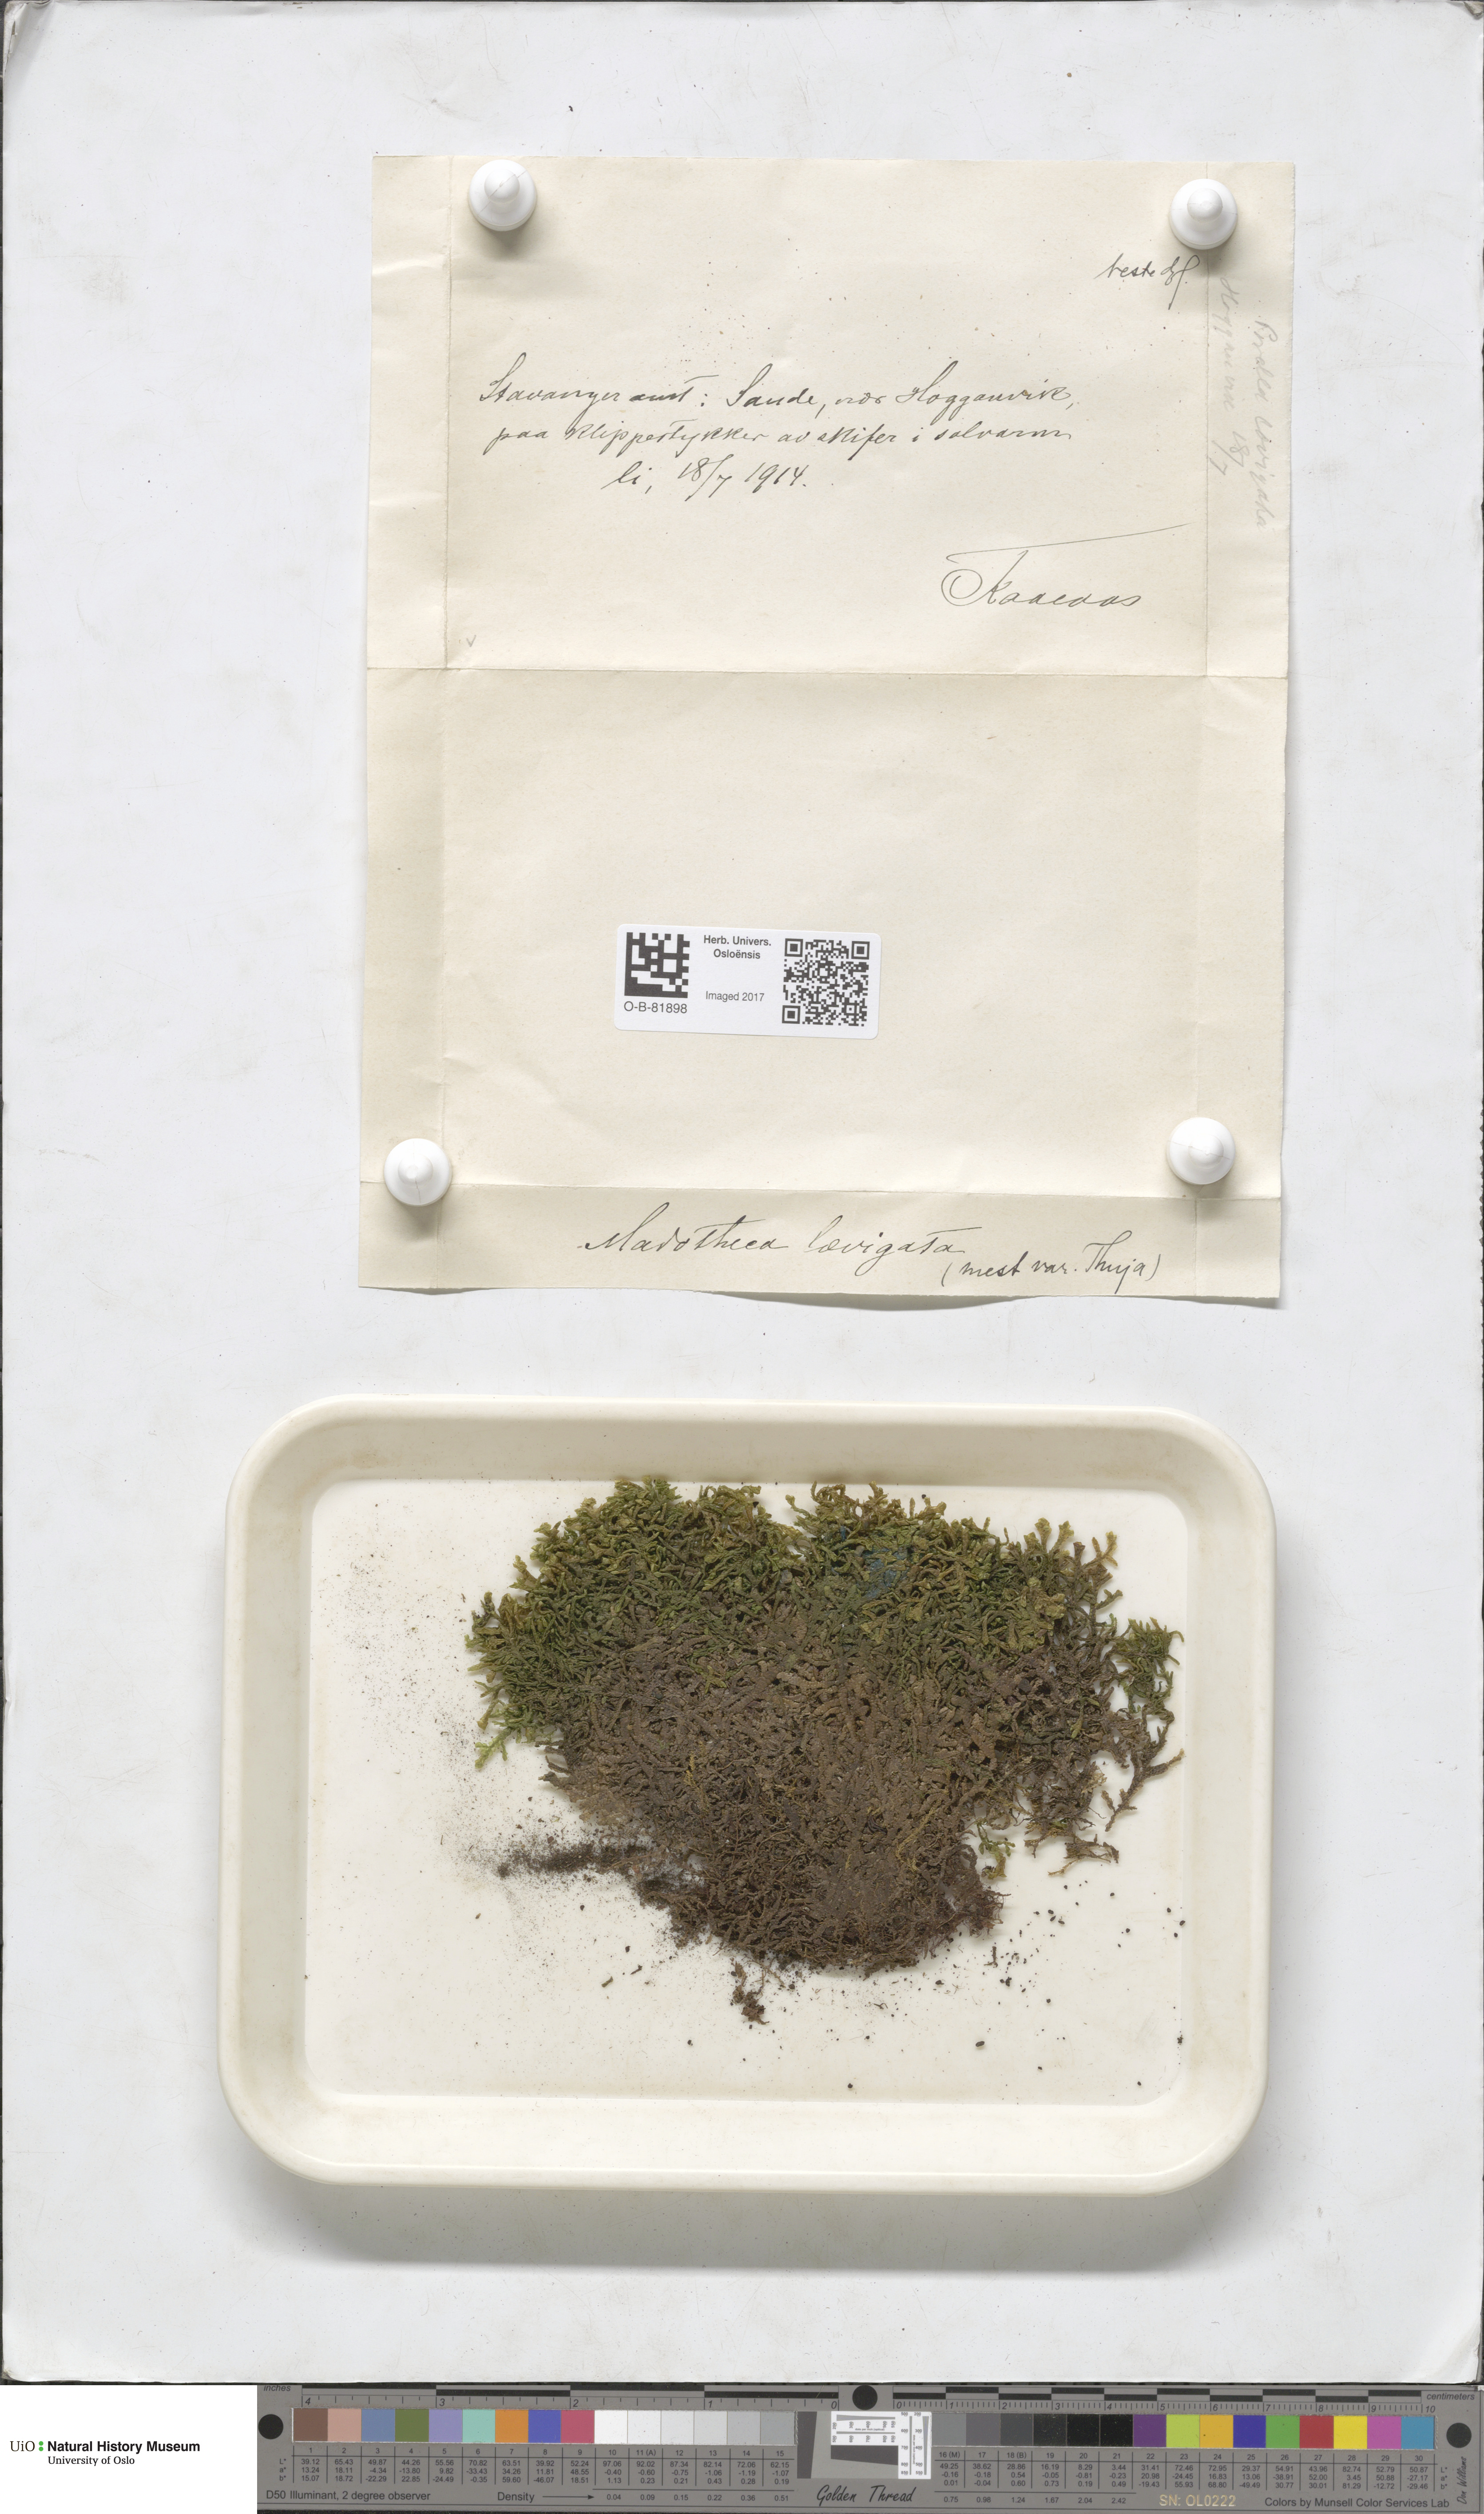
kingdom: Plantae
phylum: Marchantiophyta
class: Jungermanniopsida
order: Porellales
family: Porellaceae
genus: Porella
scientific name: Porella arboris-vitae
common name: Bitter scalewort
